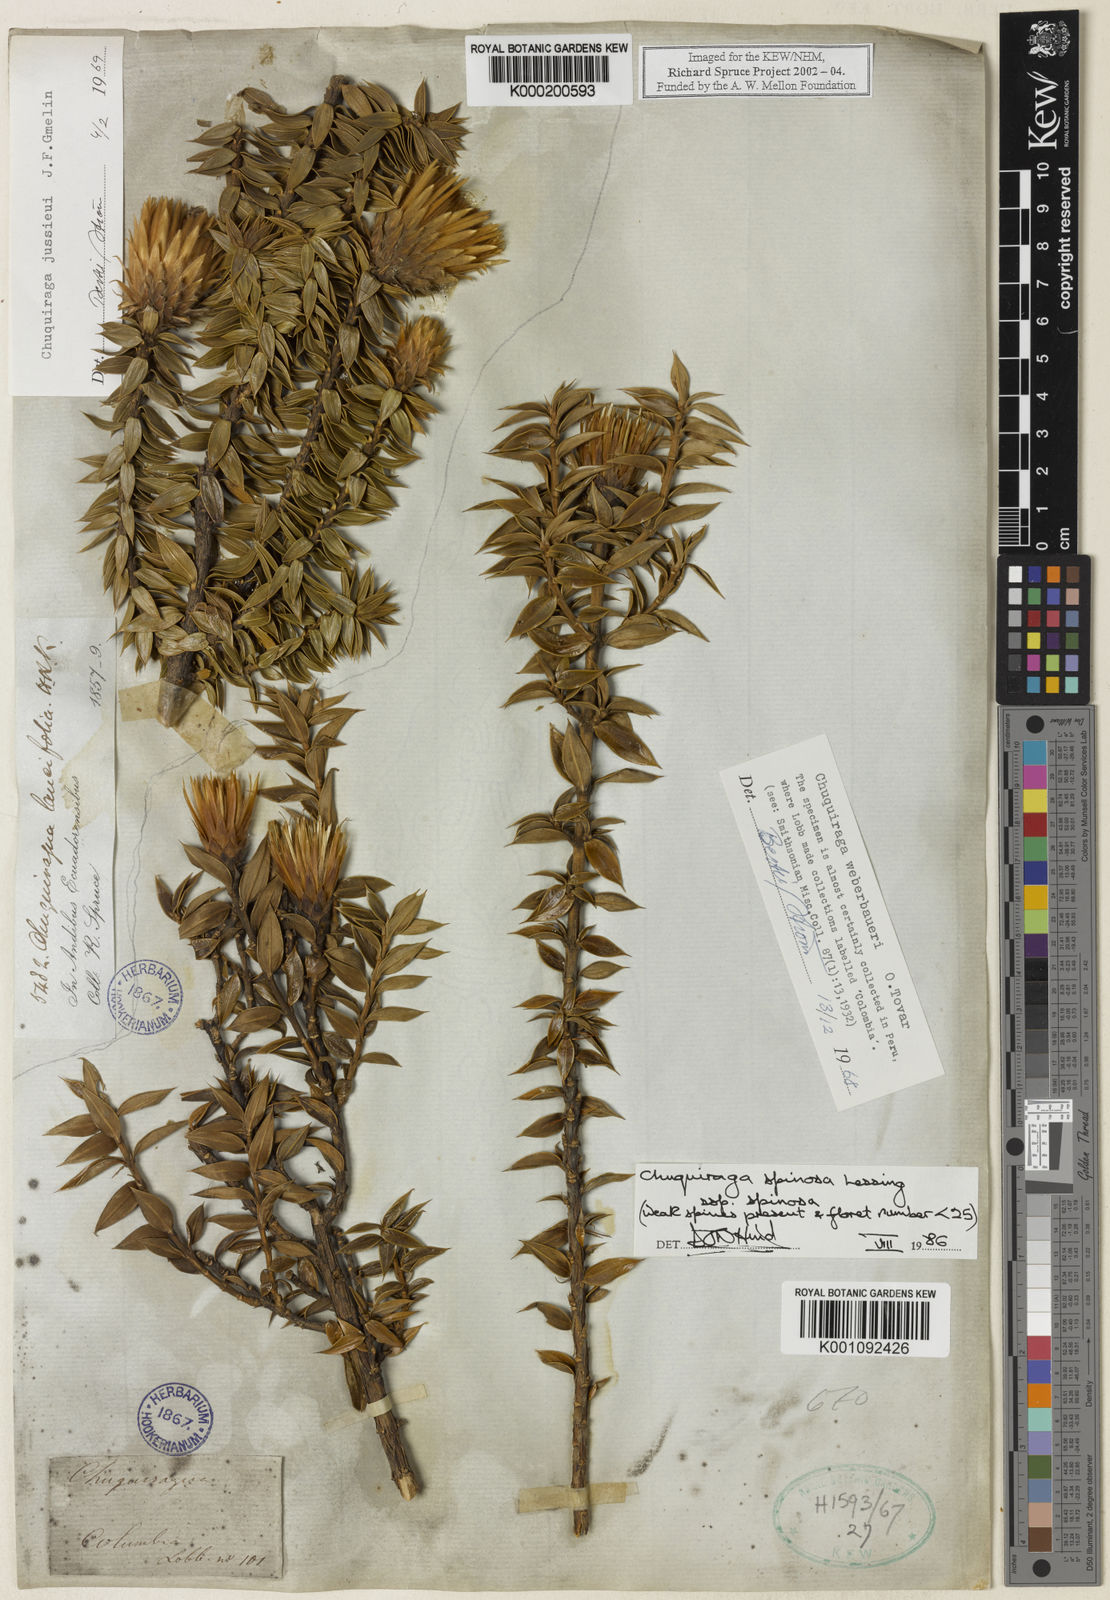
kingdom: Plantae
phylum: Tracheophyta
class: Magnoliopsida
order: Asterales
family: Asteraceae
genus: Chuquiraga
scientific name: Chuquiraga jussieui
